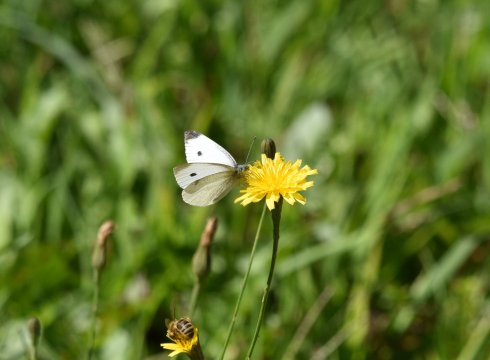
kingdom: Animalia
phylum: Arthropoda
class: Insecta
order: Lepidoptera
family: Pieridae
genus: Pieris
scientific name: Pieris rapae
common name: Cabbage White
